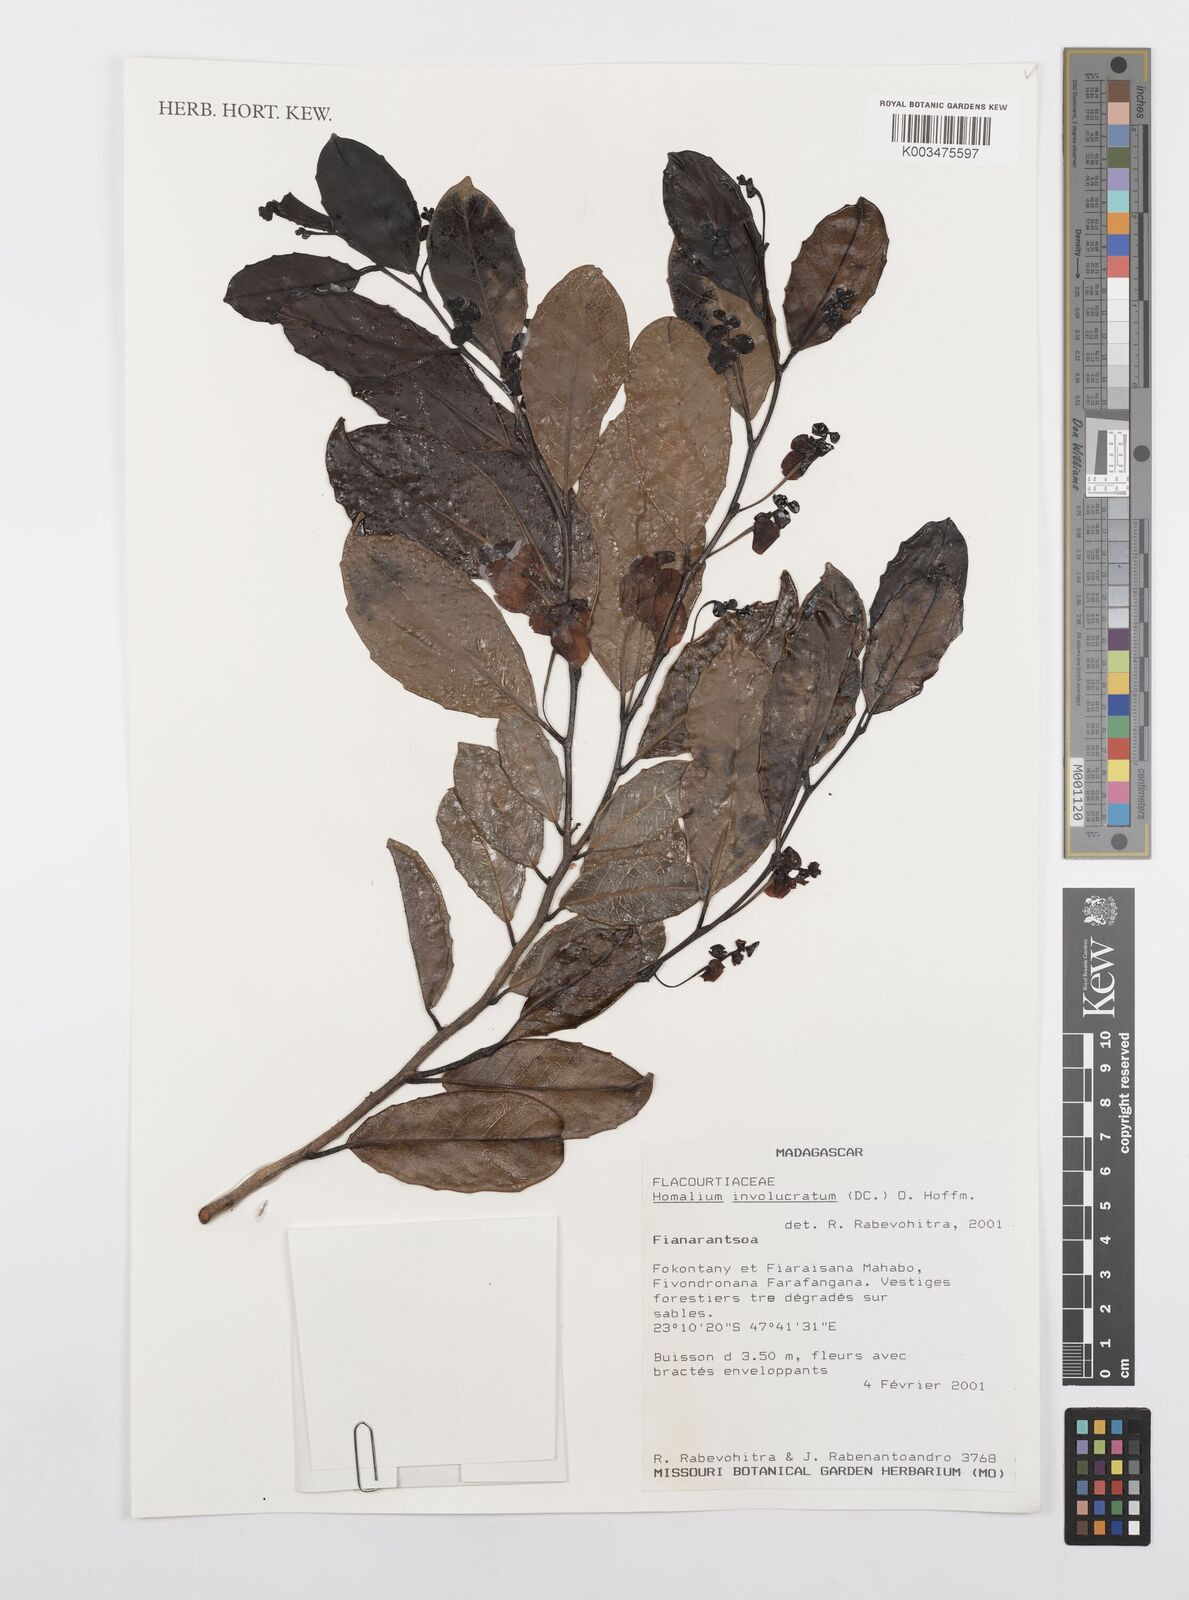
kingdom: Plantae
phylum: Tracheophyta
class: Magnoliopsida
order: Malpighiales
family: Salicaceae
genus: Homalium
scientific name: Homalium involucratum
